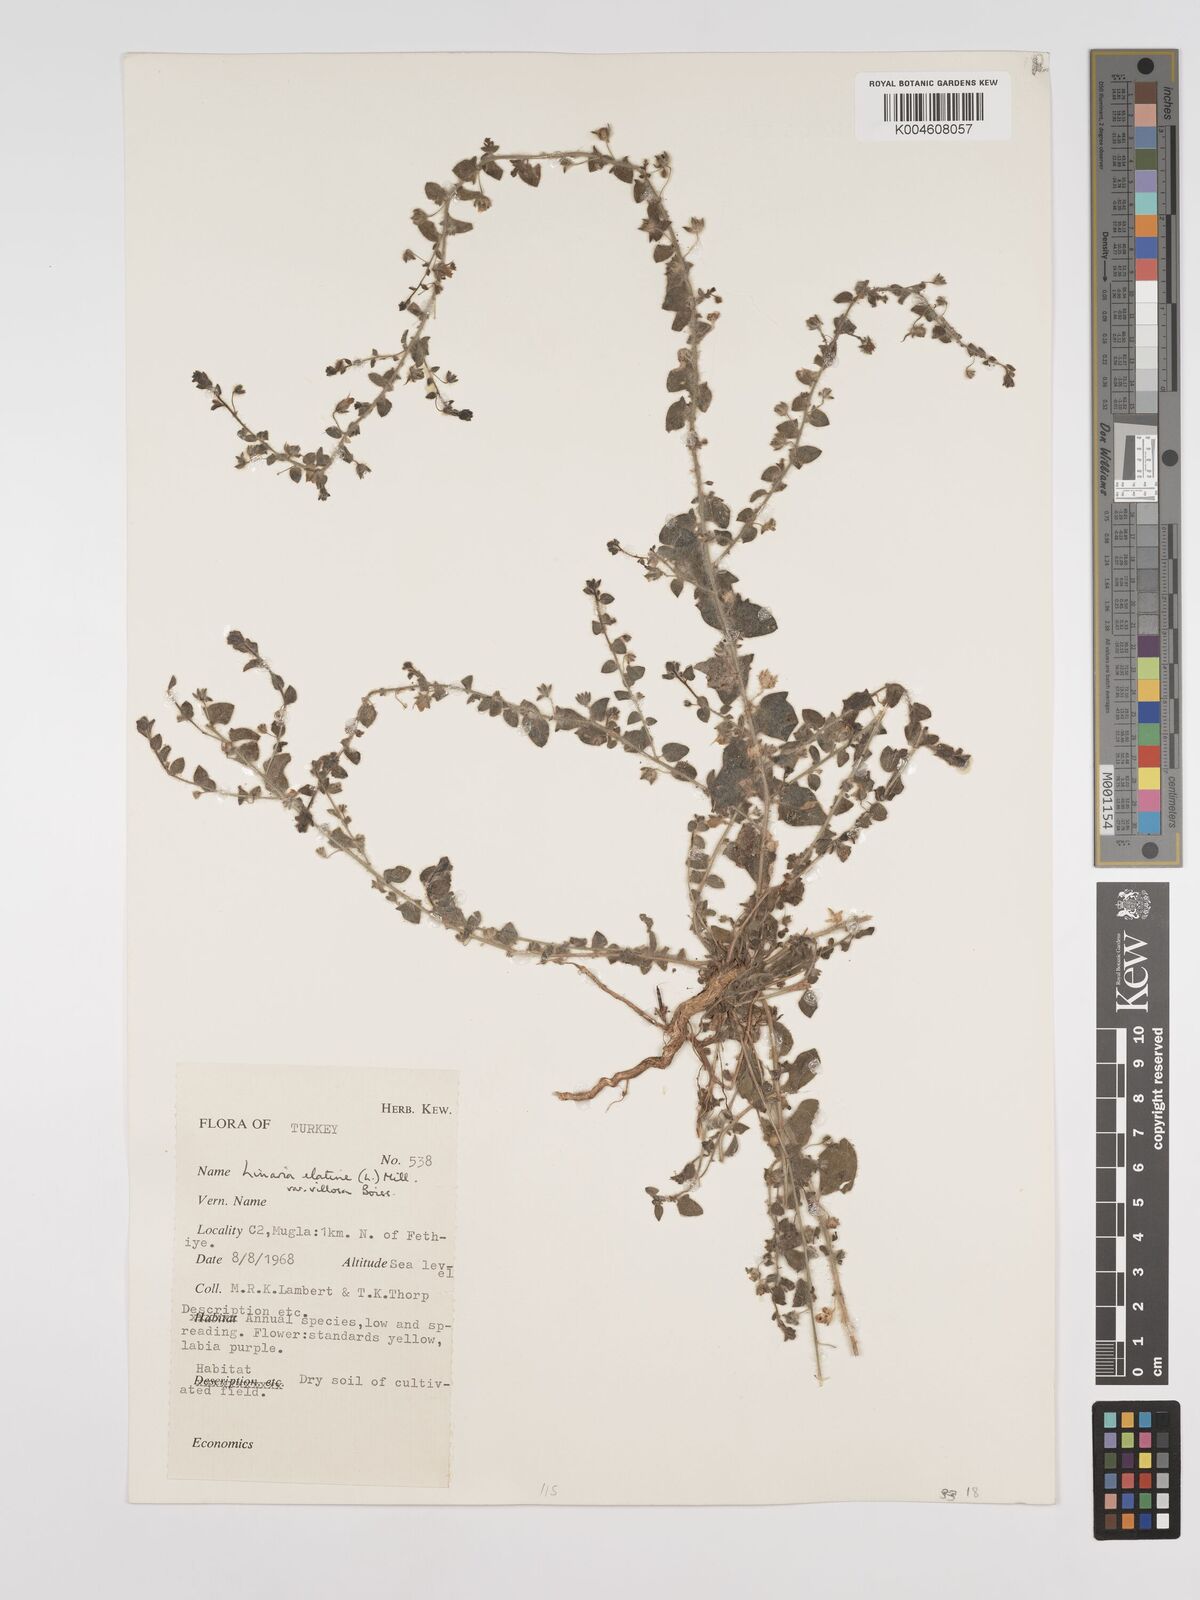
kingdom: Plantae
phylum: Tracheophyta
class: Magnoliopsida
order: Lamiales
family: Plantaginaceae
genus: Kickxia
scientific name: Kickxia elatine
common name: Sharp-leaved fluellen
